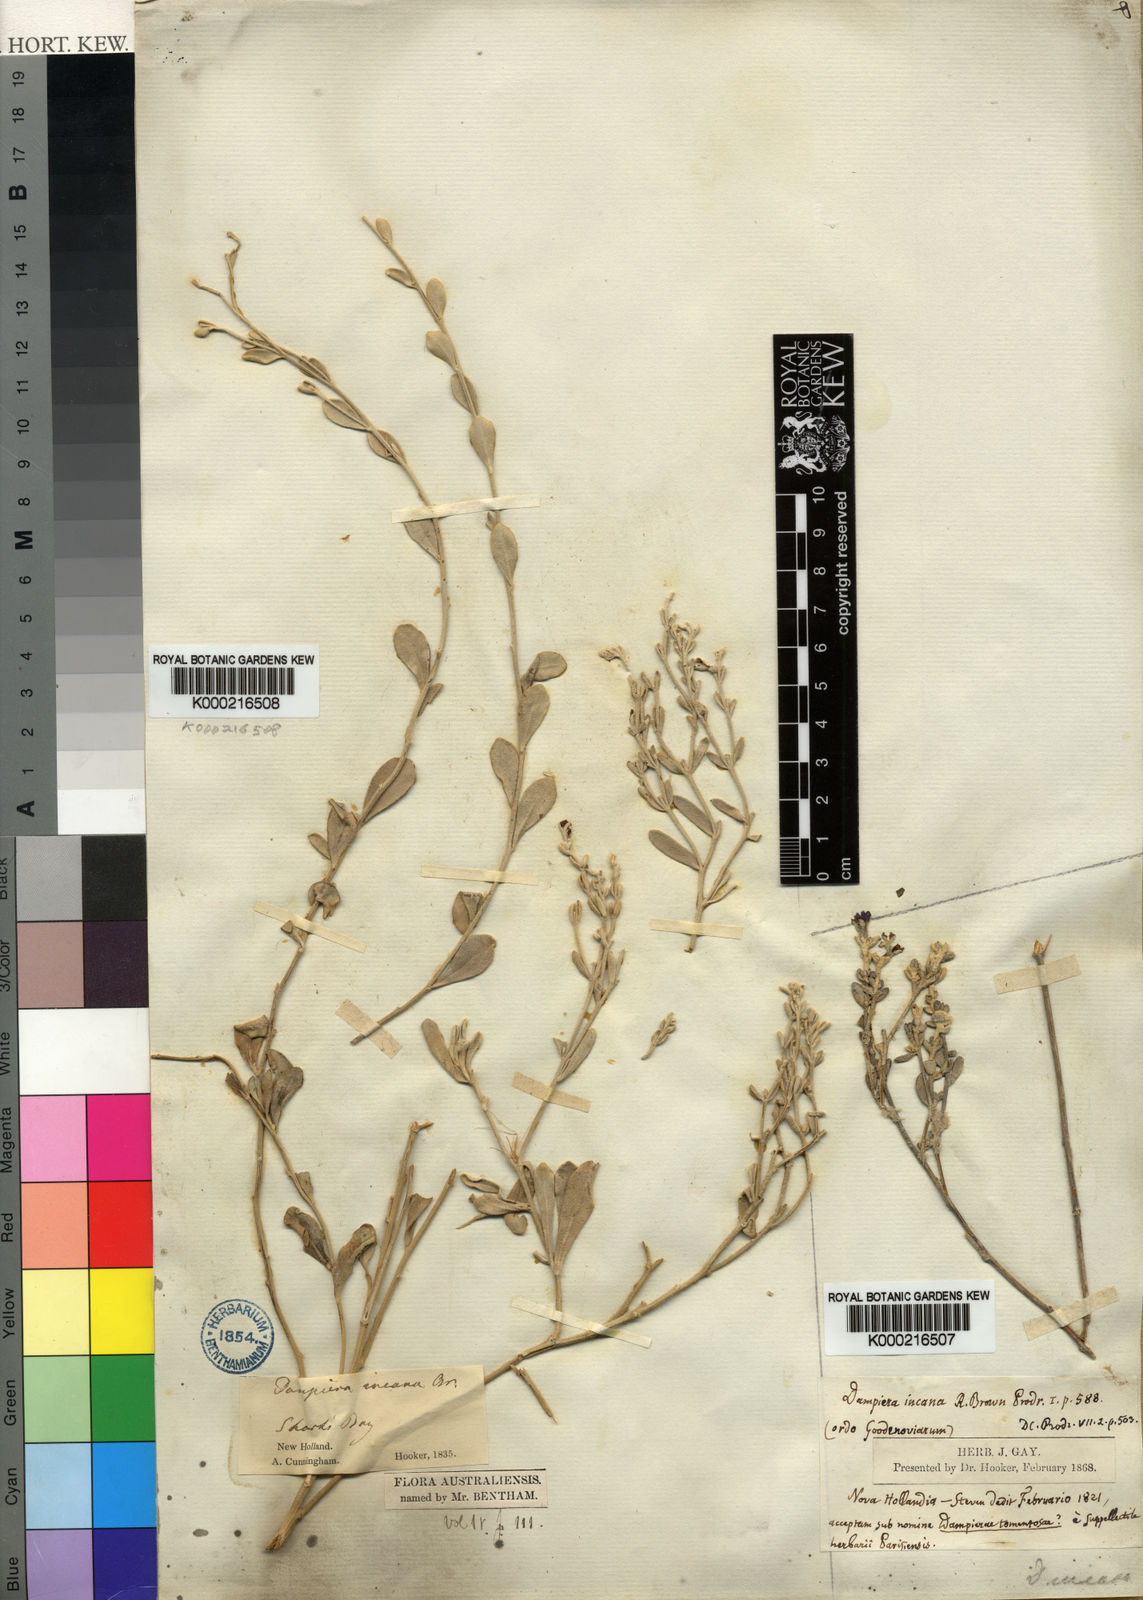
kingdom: Plantae
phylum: Tracheophyta
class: Magnoliopsida
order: Asterales
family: Goodeniaceae
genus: Dampiera
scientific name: Dampiera incana
